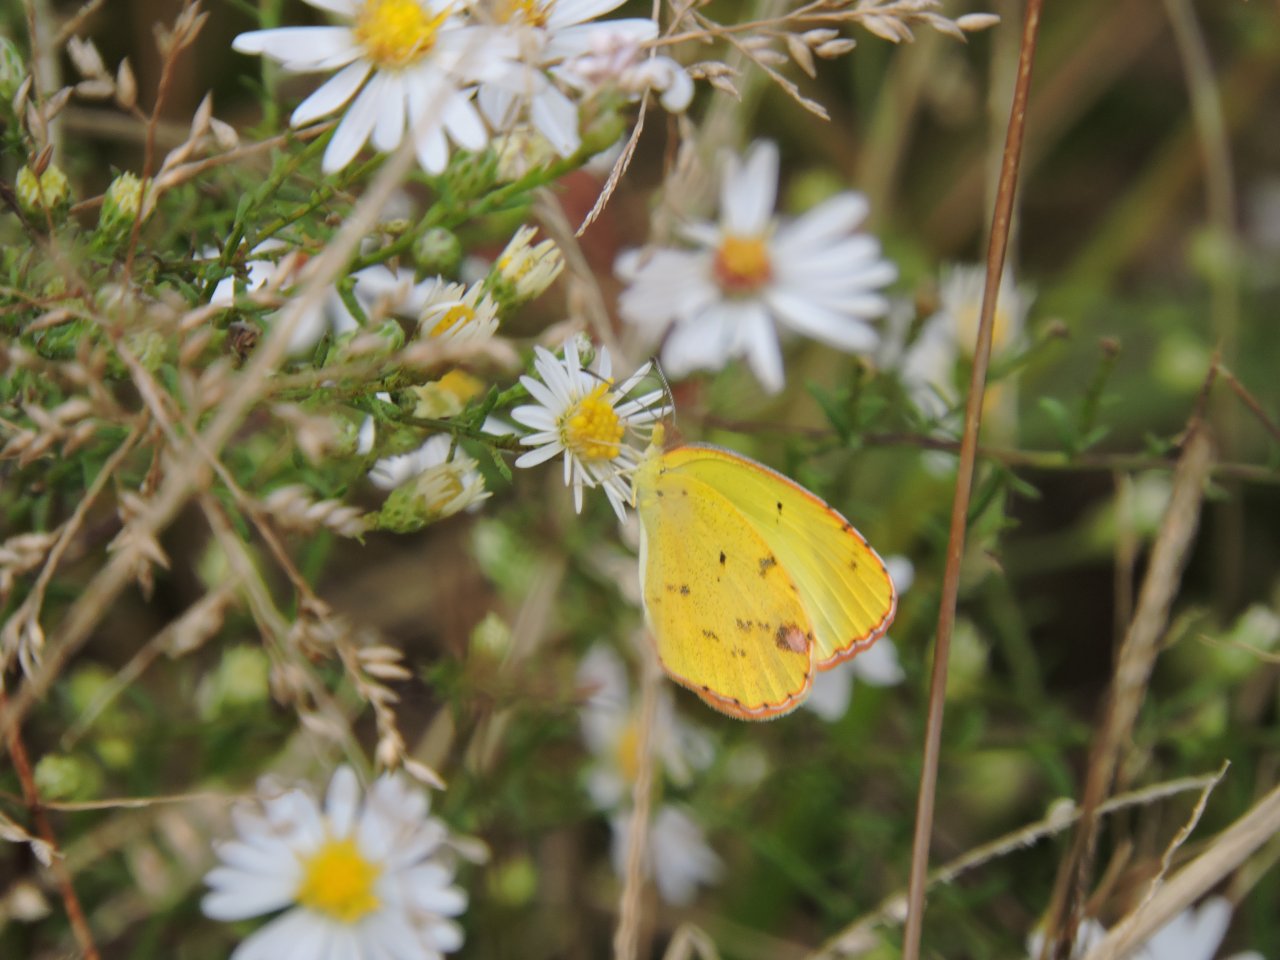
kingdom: Animalia
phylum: Arthropoda
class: Insecta
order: Lepidoptera
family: Pieridae
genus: Pyrisitia
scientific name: Pyrisitia lisa
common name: Little Yellow
